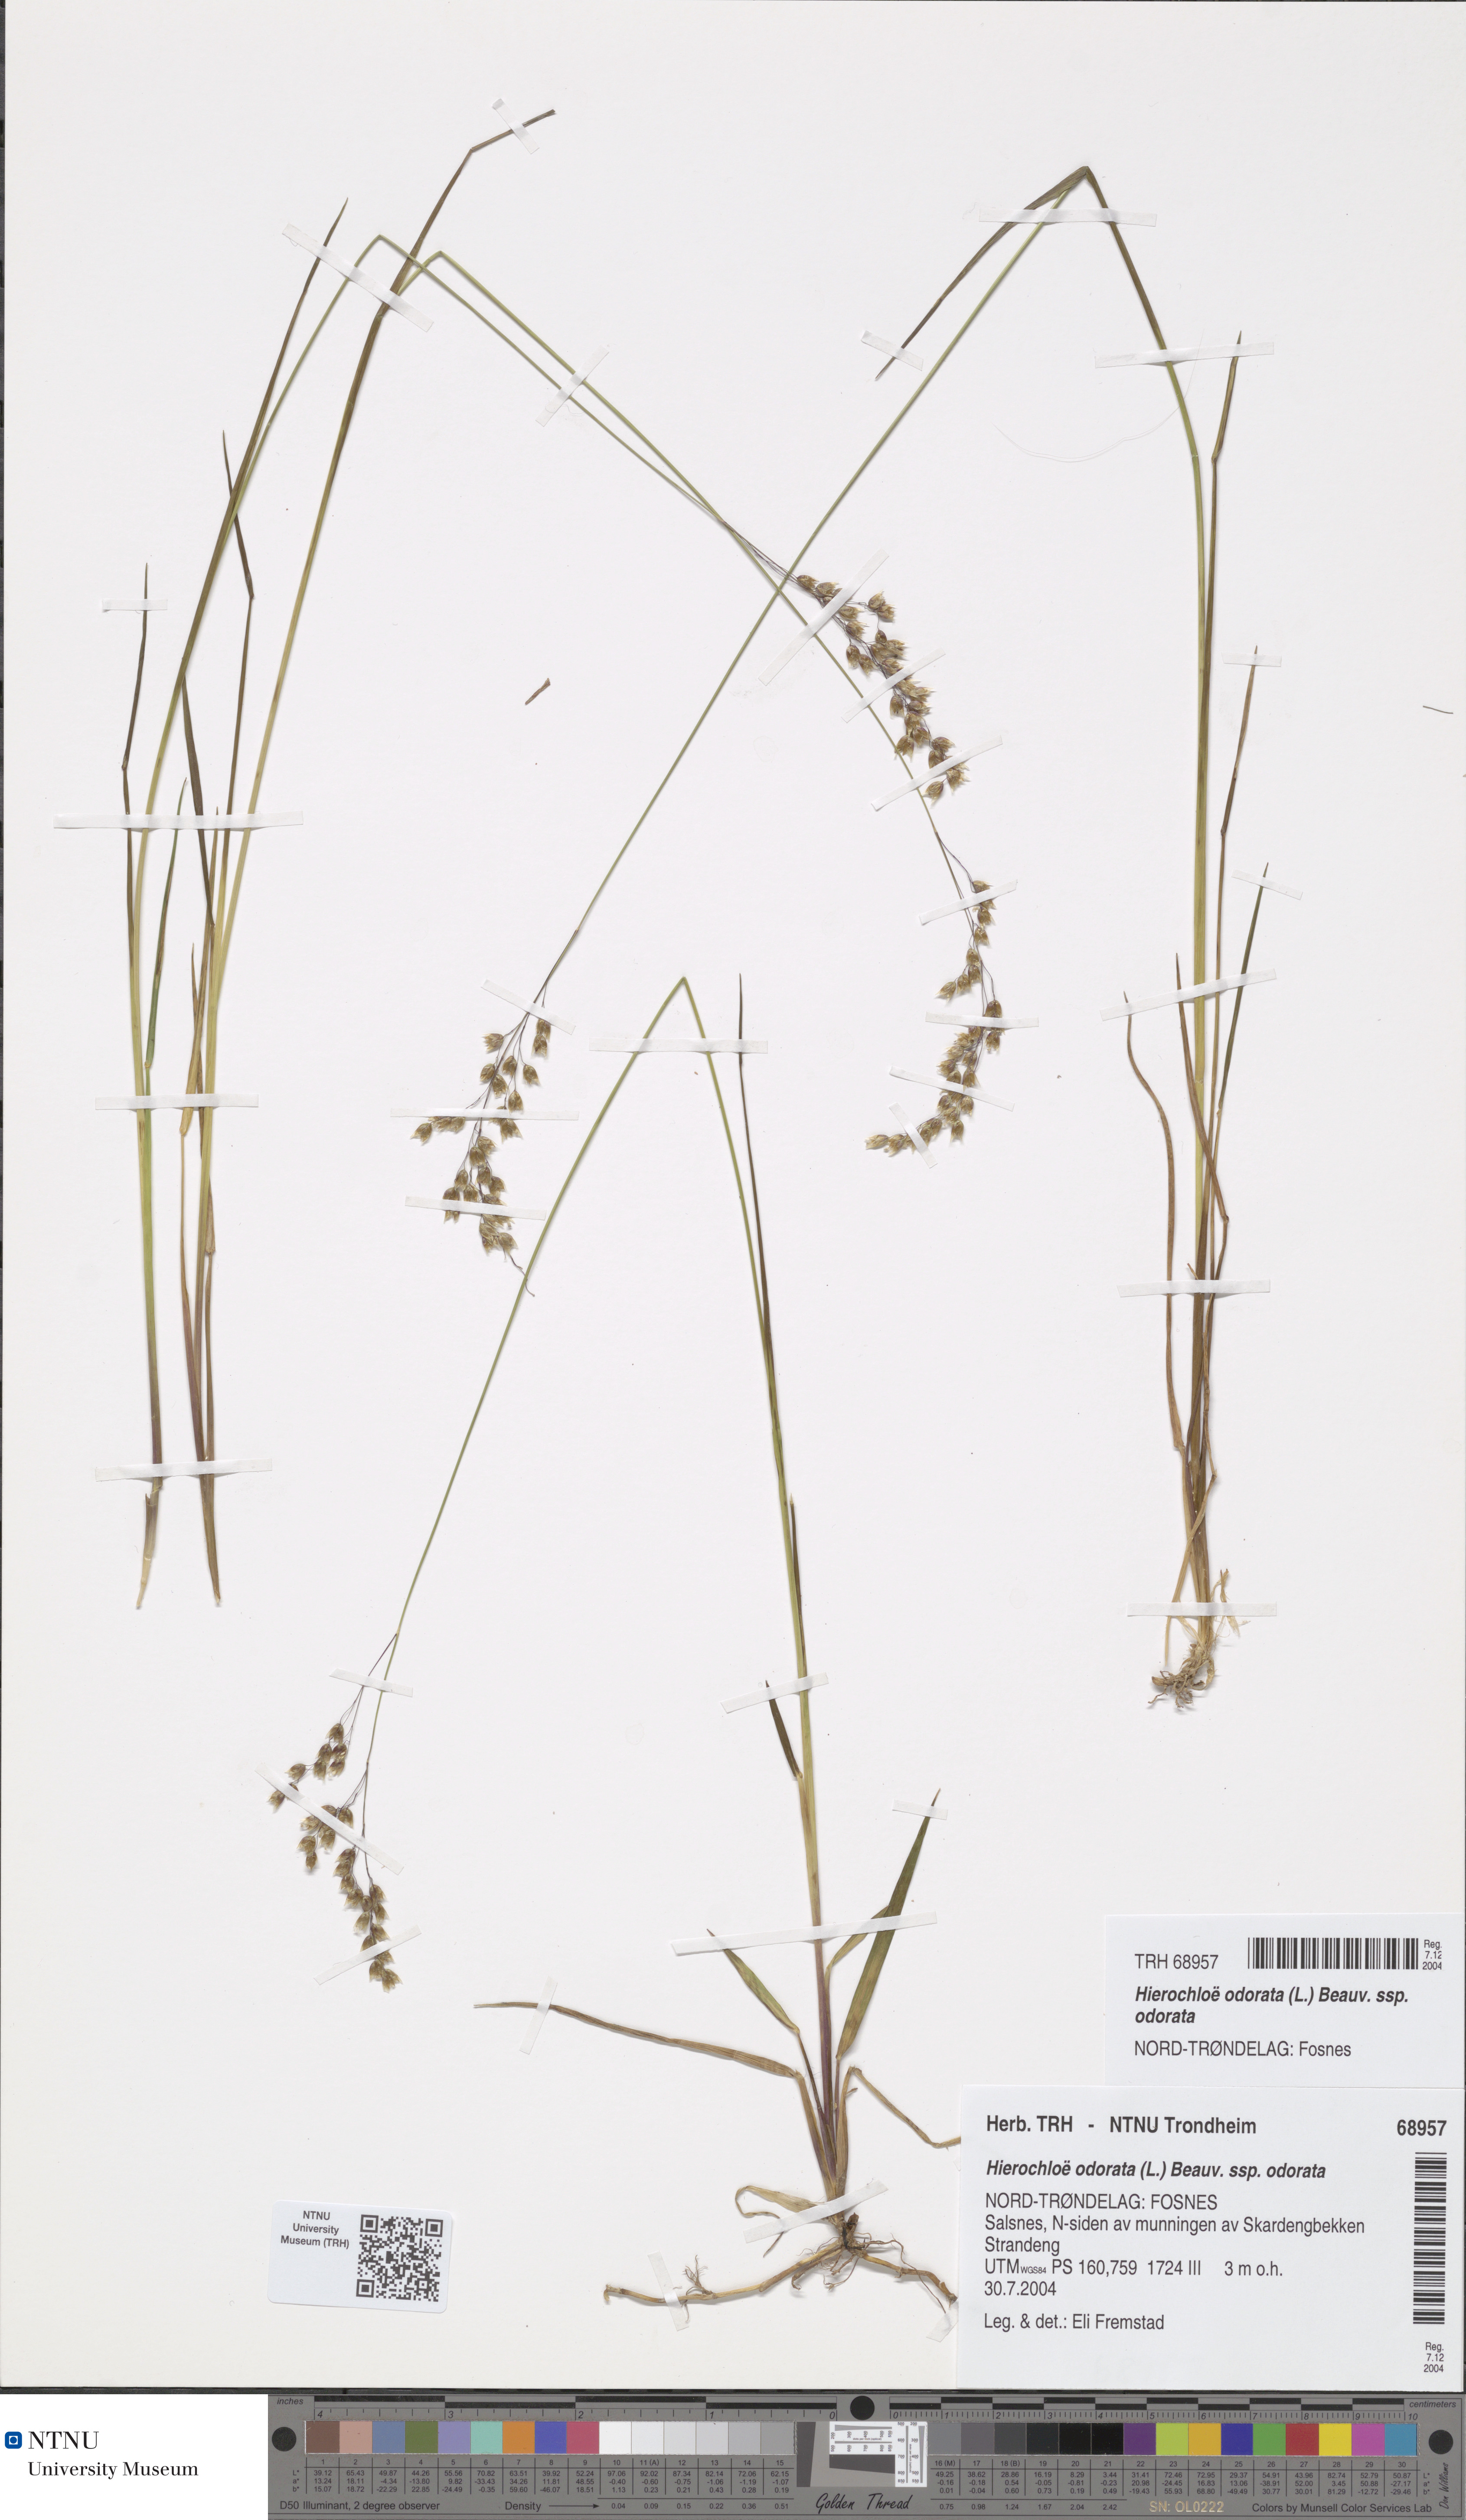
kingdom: Plantae
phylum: Tracheophyta
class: Liliopsida
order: Poales
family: Poaceae
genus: Anthoxanthum
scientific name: Anthoxanthum nitens
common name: Holy grass
